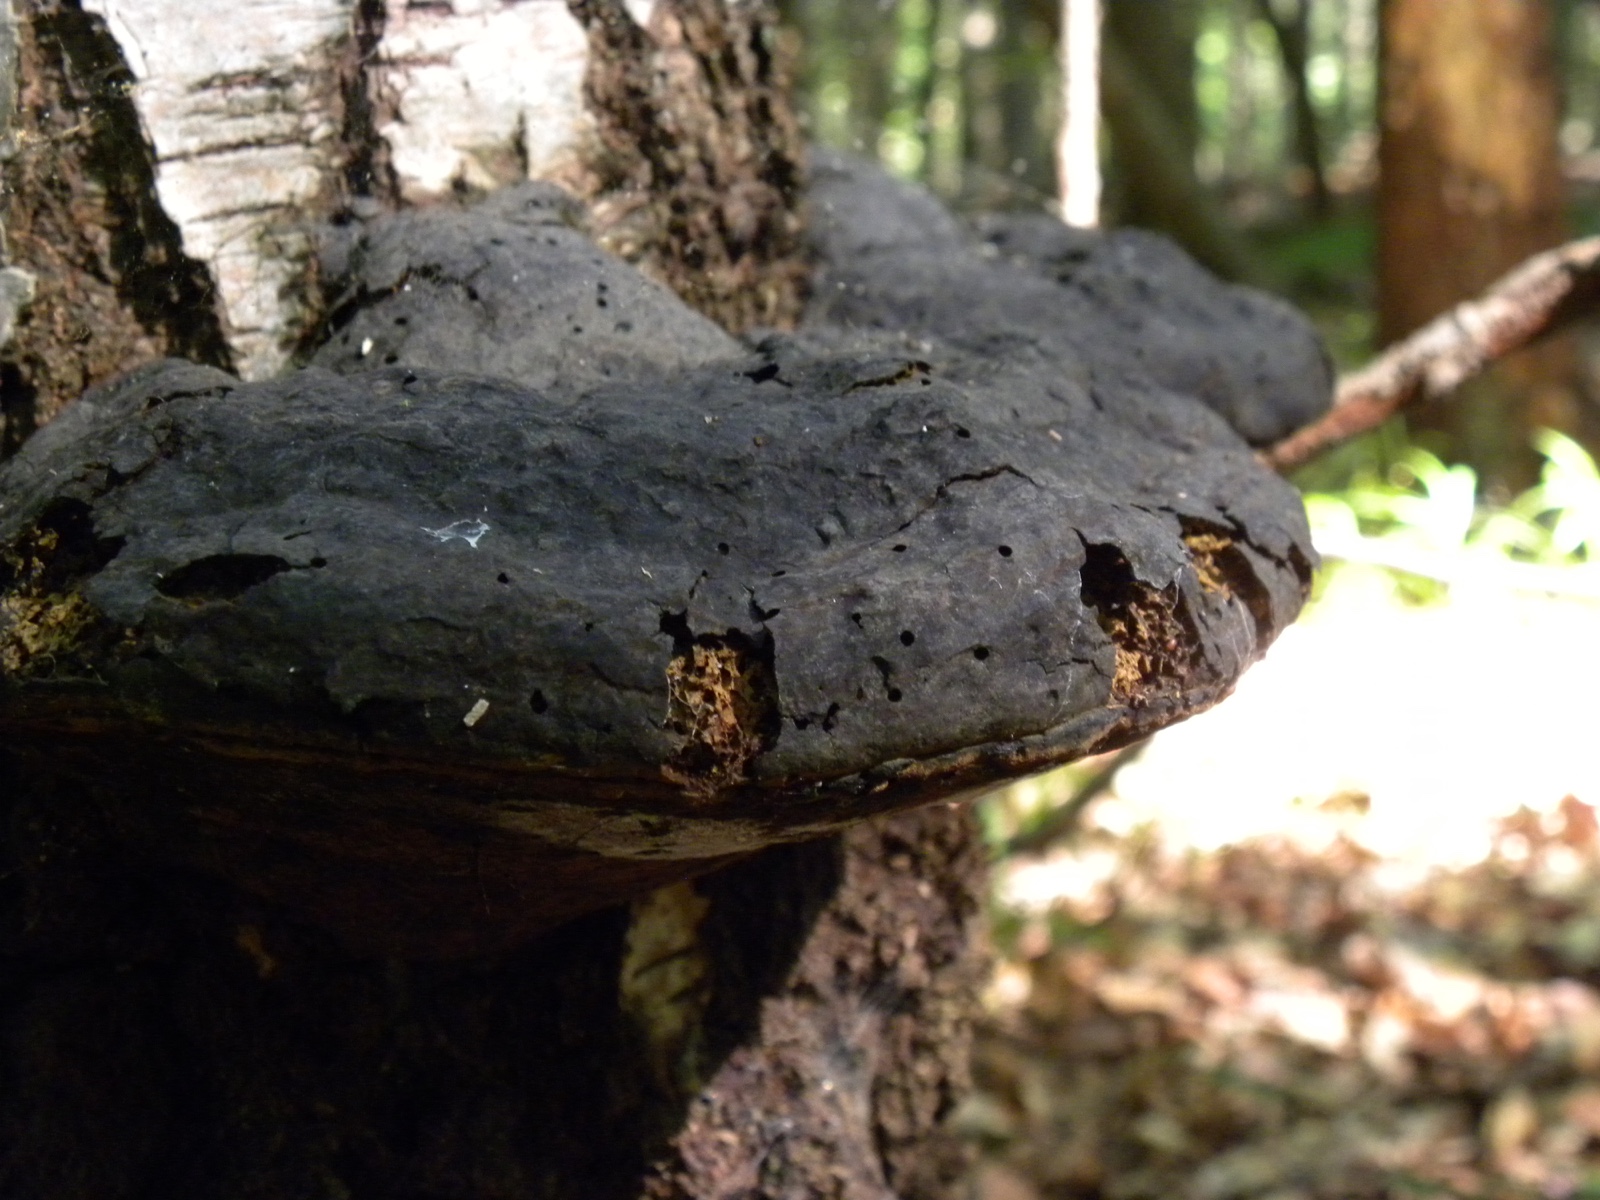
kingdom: Fungi
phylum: Basidiomycota
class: Agaricomycetes
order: Polyporales
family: Polyporaceae
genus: Fomes
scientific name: Fomes fomentarius
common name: tøndersvamp
